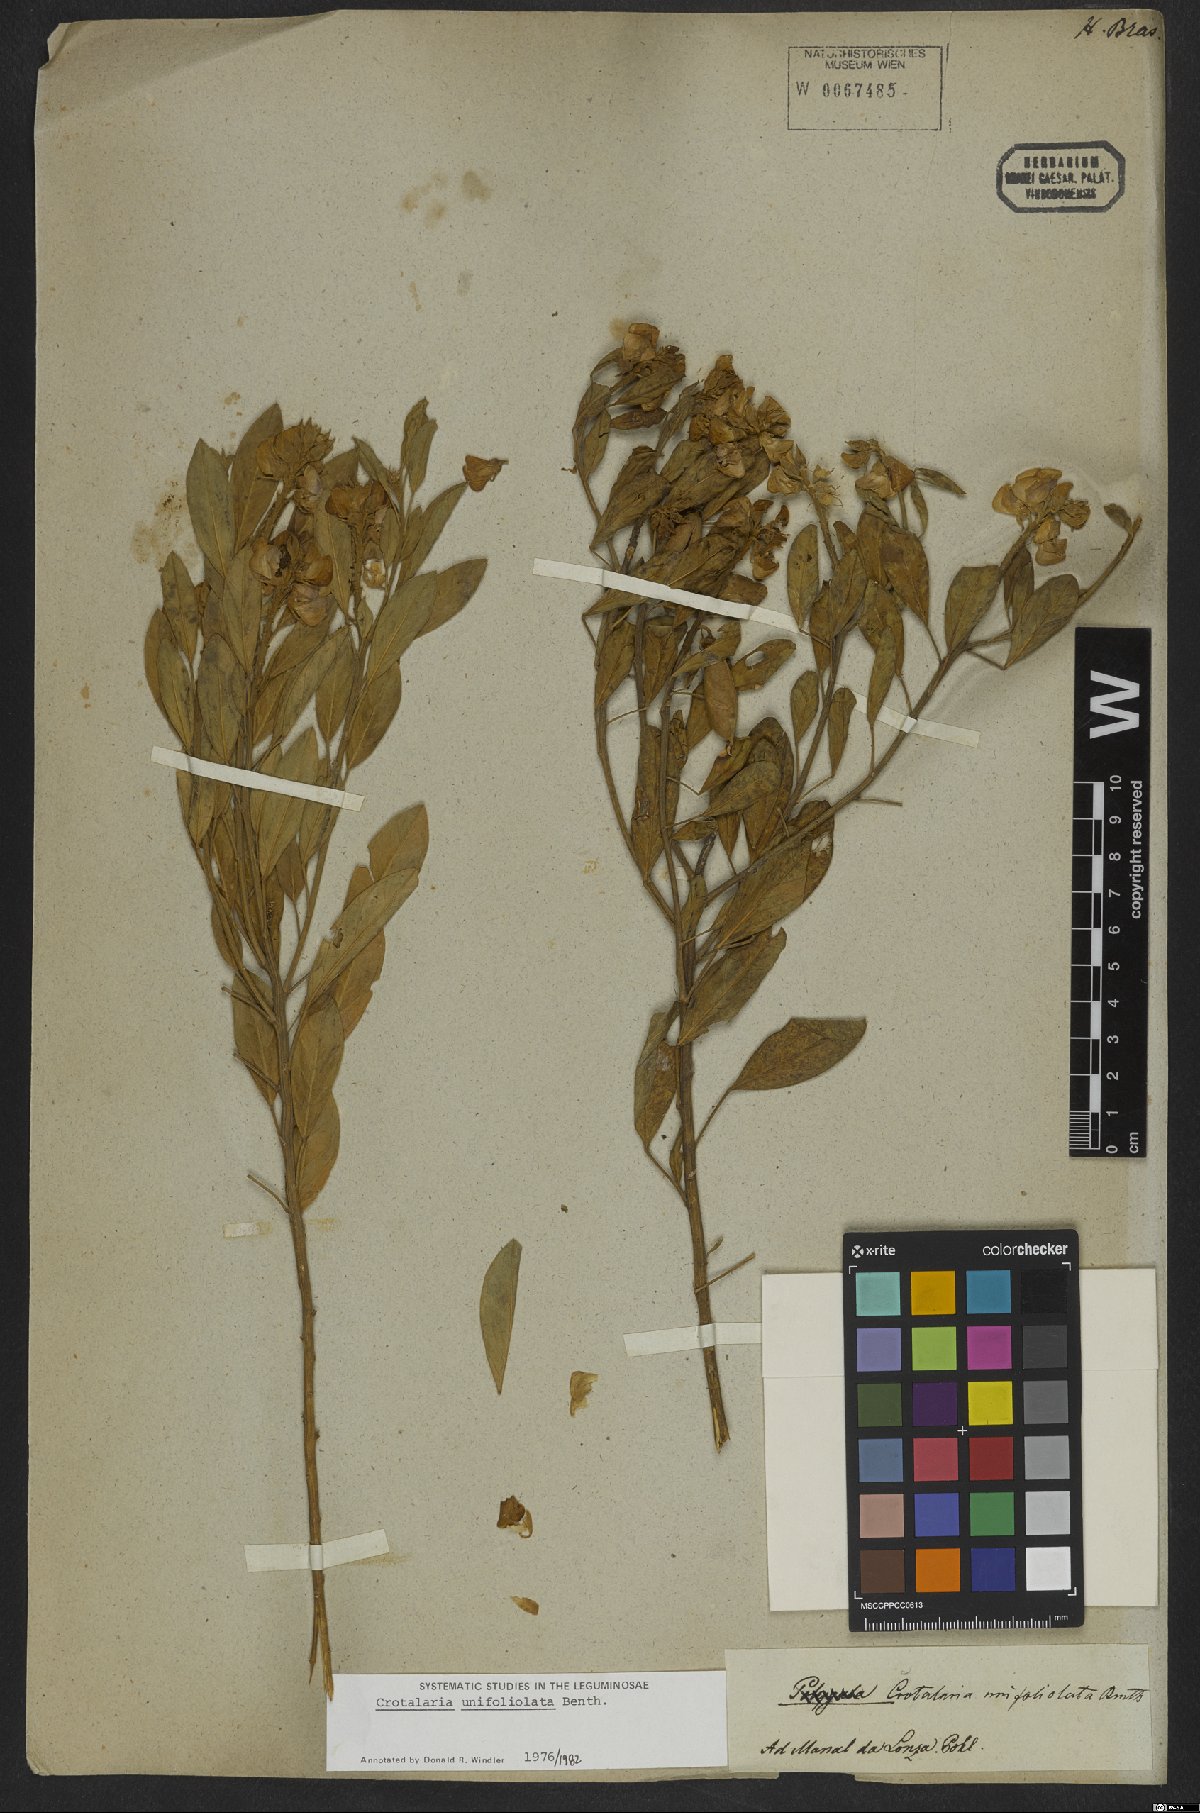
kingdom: Plantae
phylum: Tracheophyta
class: Magnoliopsida
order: Fabales
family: Fabaceae
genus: Crotalaria
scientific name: Crotalaria unifoliolata
